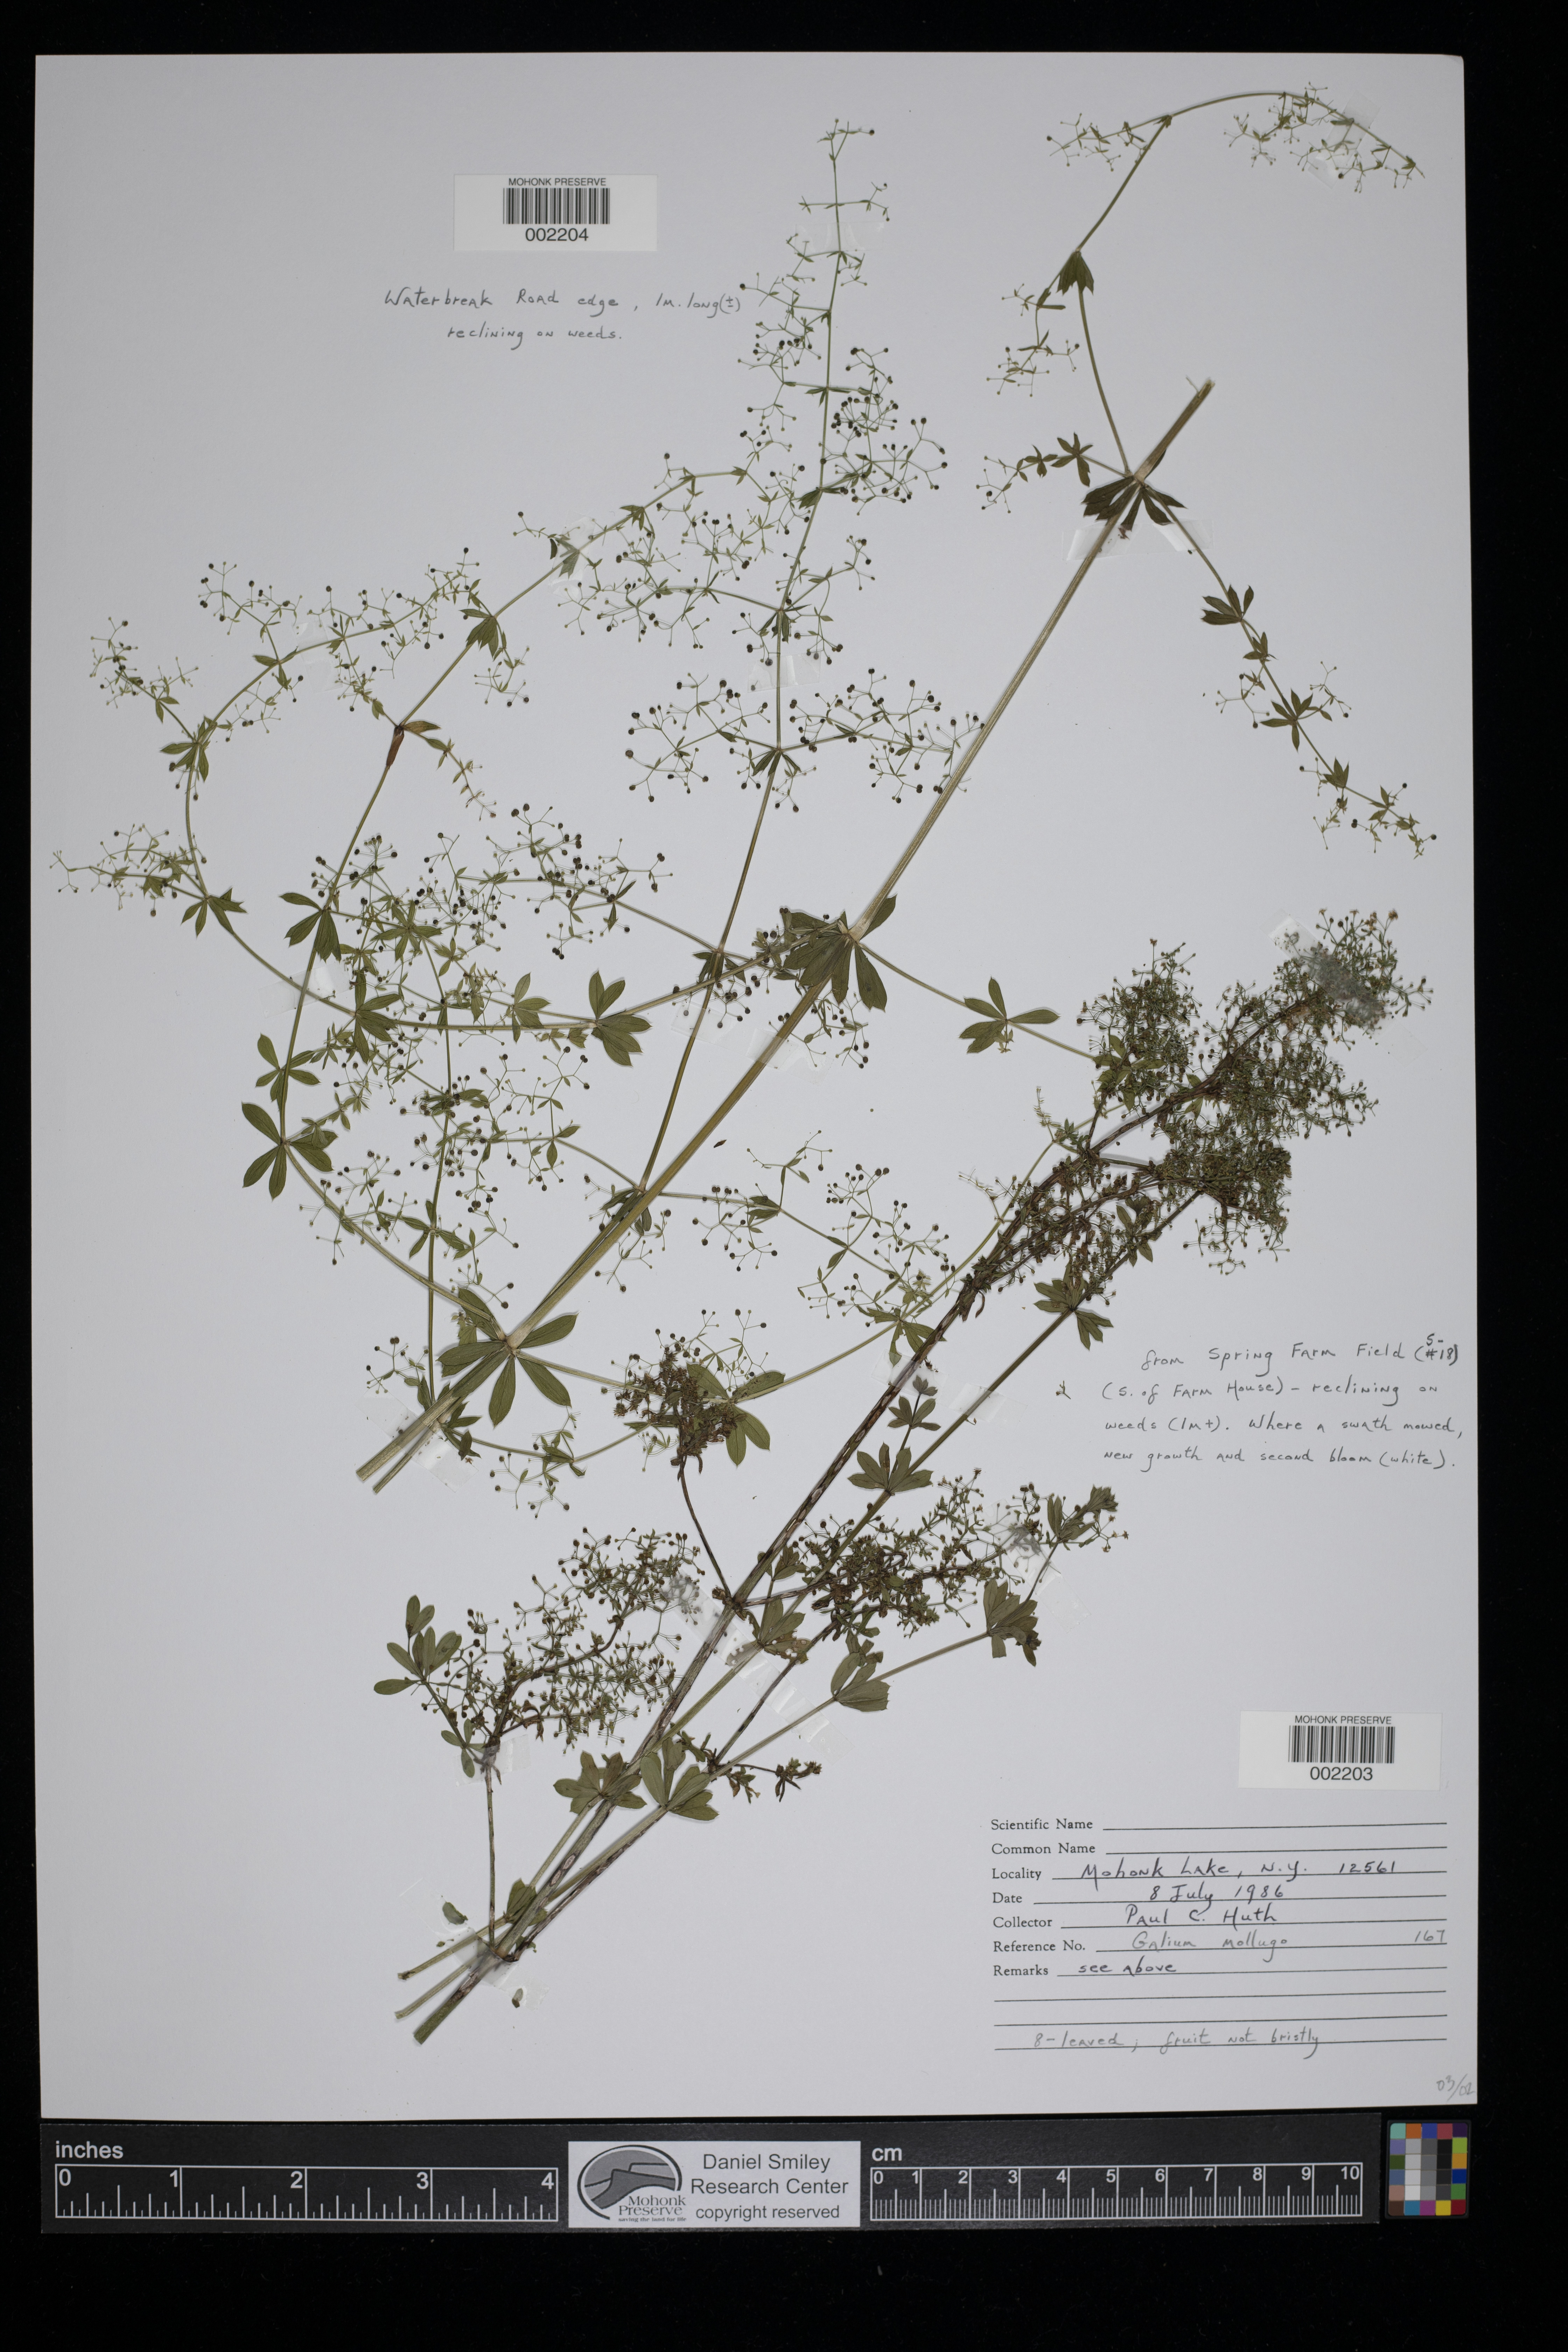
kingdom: Plantae
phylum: Tracheophyta
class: Magnoliopsida
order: Gentianales
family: Rubiaceae
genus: Galium
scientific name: Galium mollugo
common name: Hedge bedstraw
